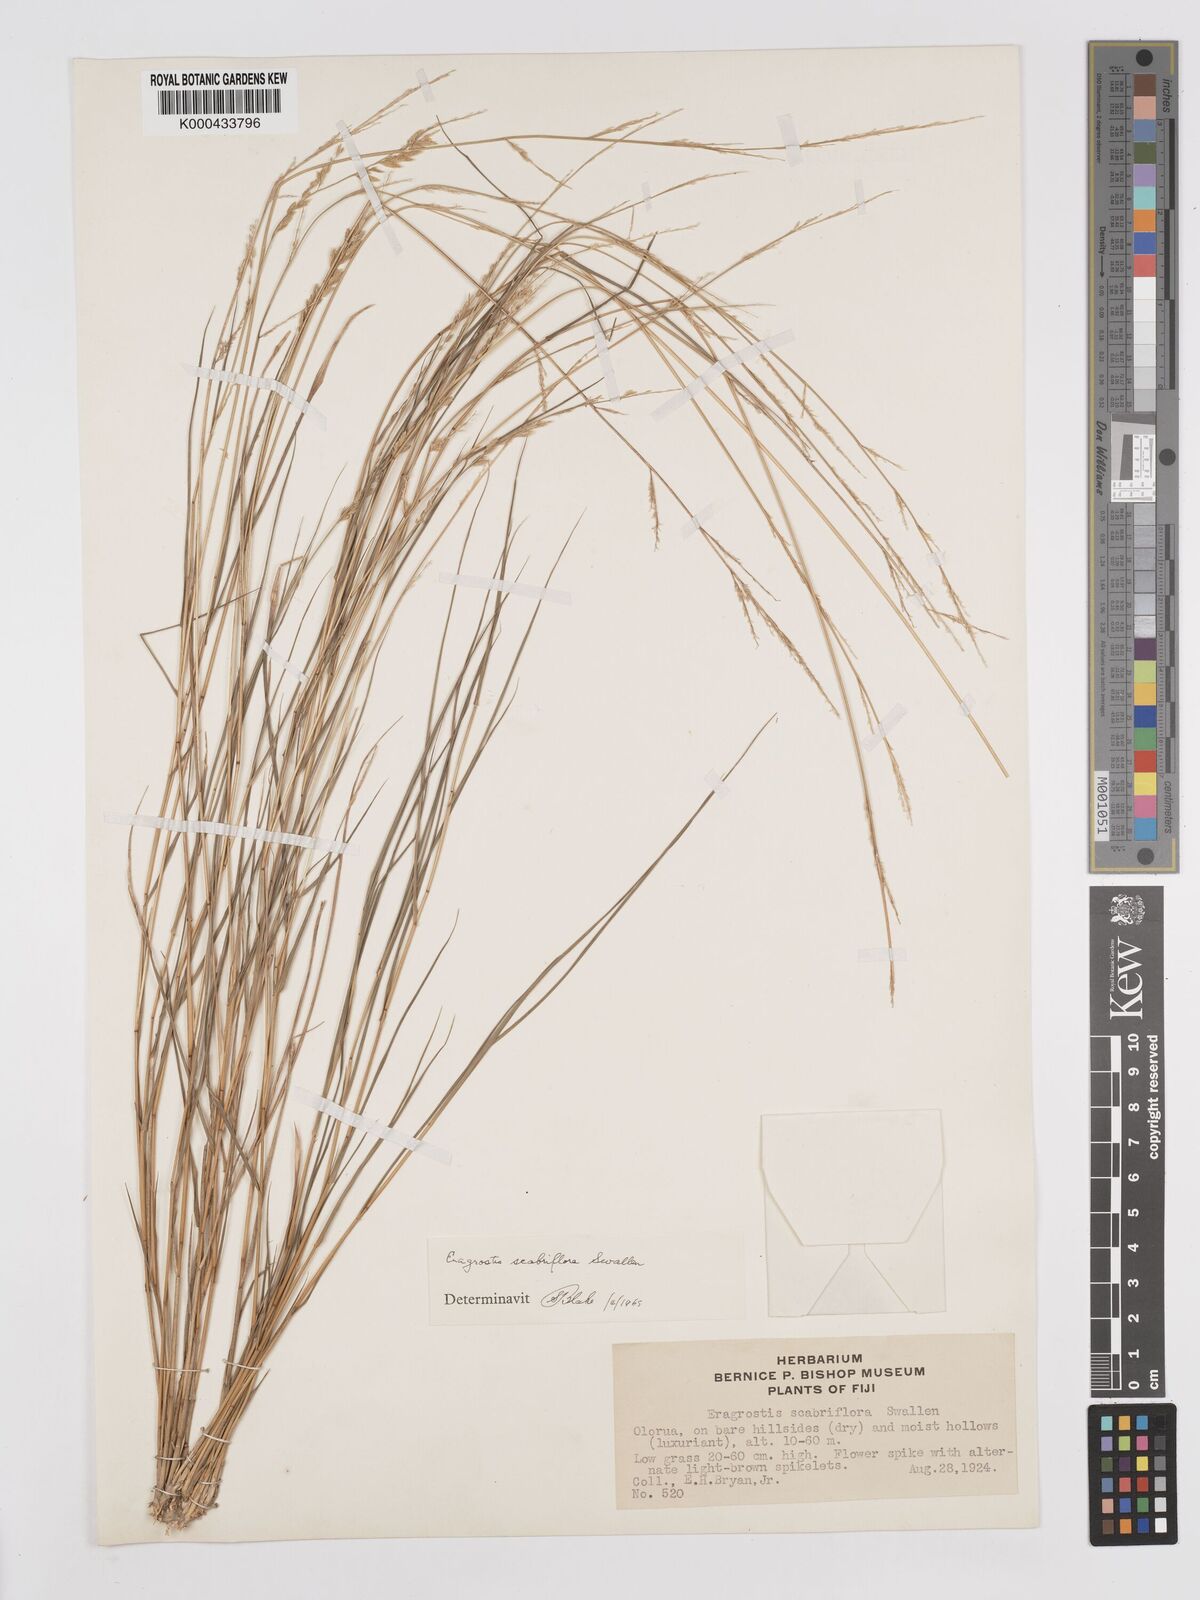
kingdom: Plantae
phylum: Tracheophyta
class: Liliopsida
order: Poales
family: Poaceae
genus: Eragrostis
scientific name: Eragrostis scabriflora
